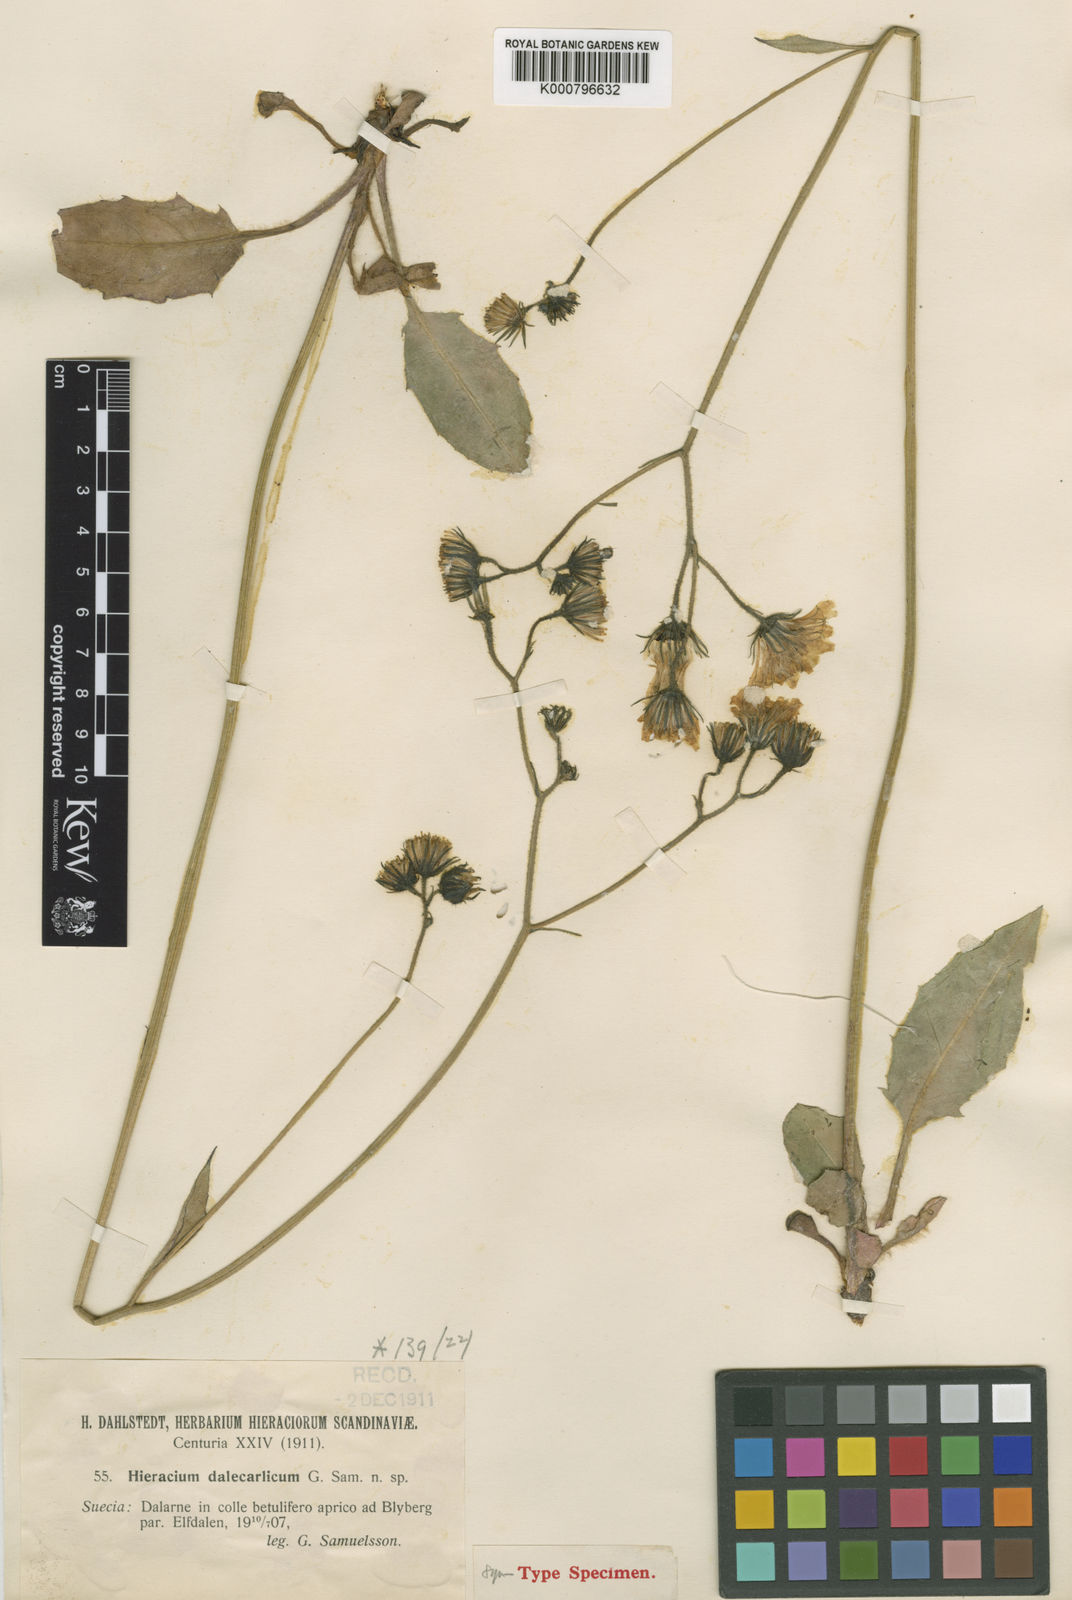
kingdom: Plantae
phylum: Tracheophyta
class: Magnoliopsida
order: Asterales
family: Asteraceae
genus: Hieracium
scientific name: Hieracium murorum
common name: Wall hawkweed
